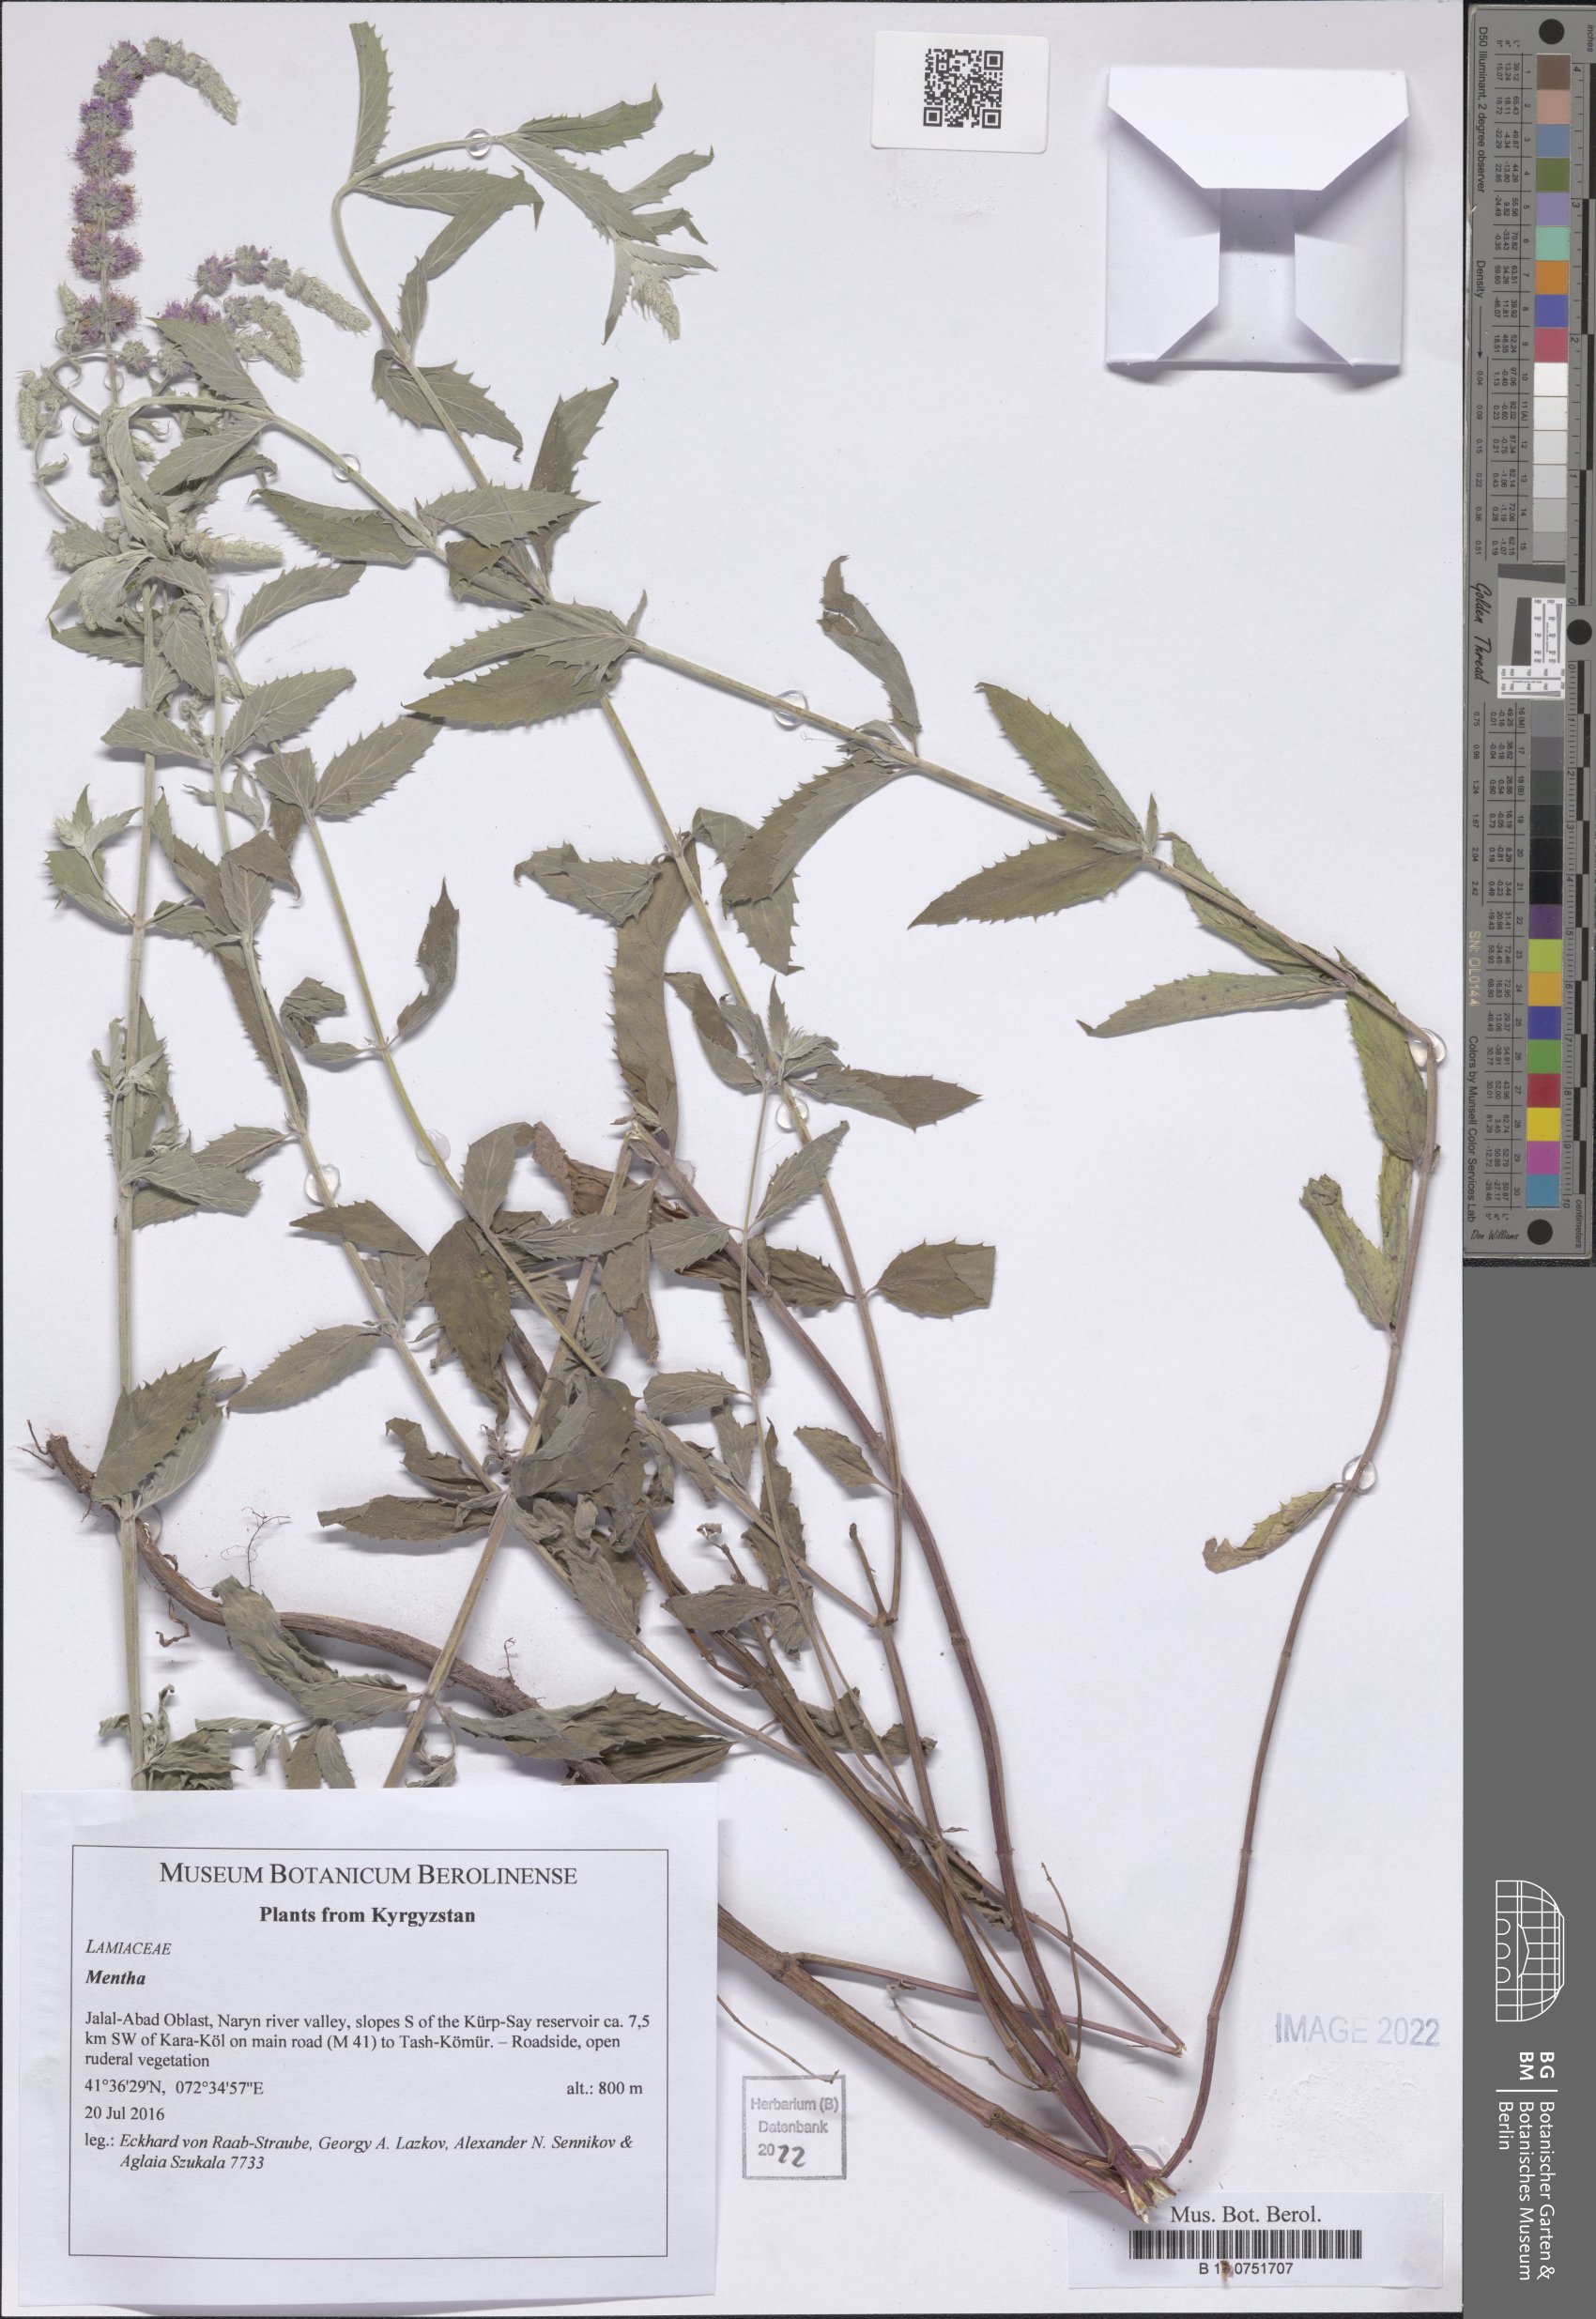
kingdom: Plantae
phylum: Tracheophyta
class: Magnoliopsida
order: Lamiales
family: Lamiaceae
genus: Mentha
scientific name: Mentha
